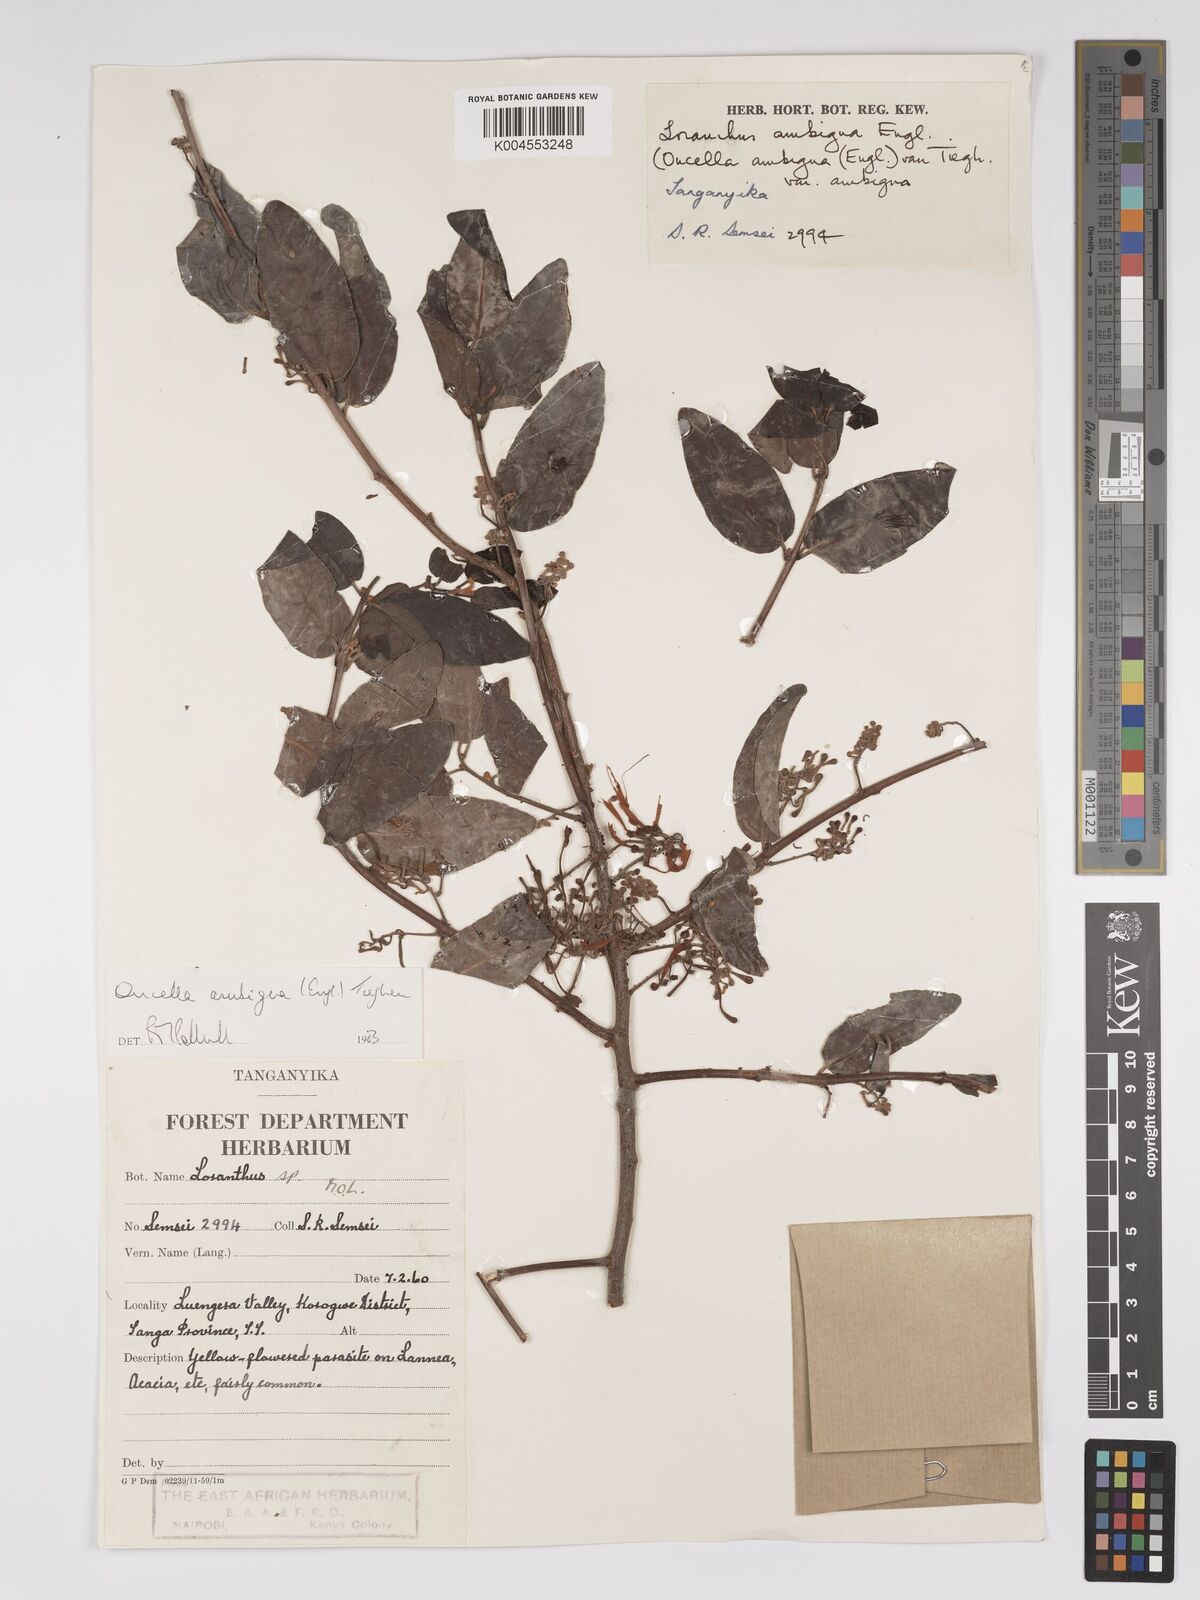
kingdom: Plantae
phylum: Tracheophyta
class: Magnoliopsida
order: Santalales
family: Loranthaceae
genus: Oncella
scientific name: Oncella ambigua
